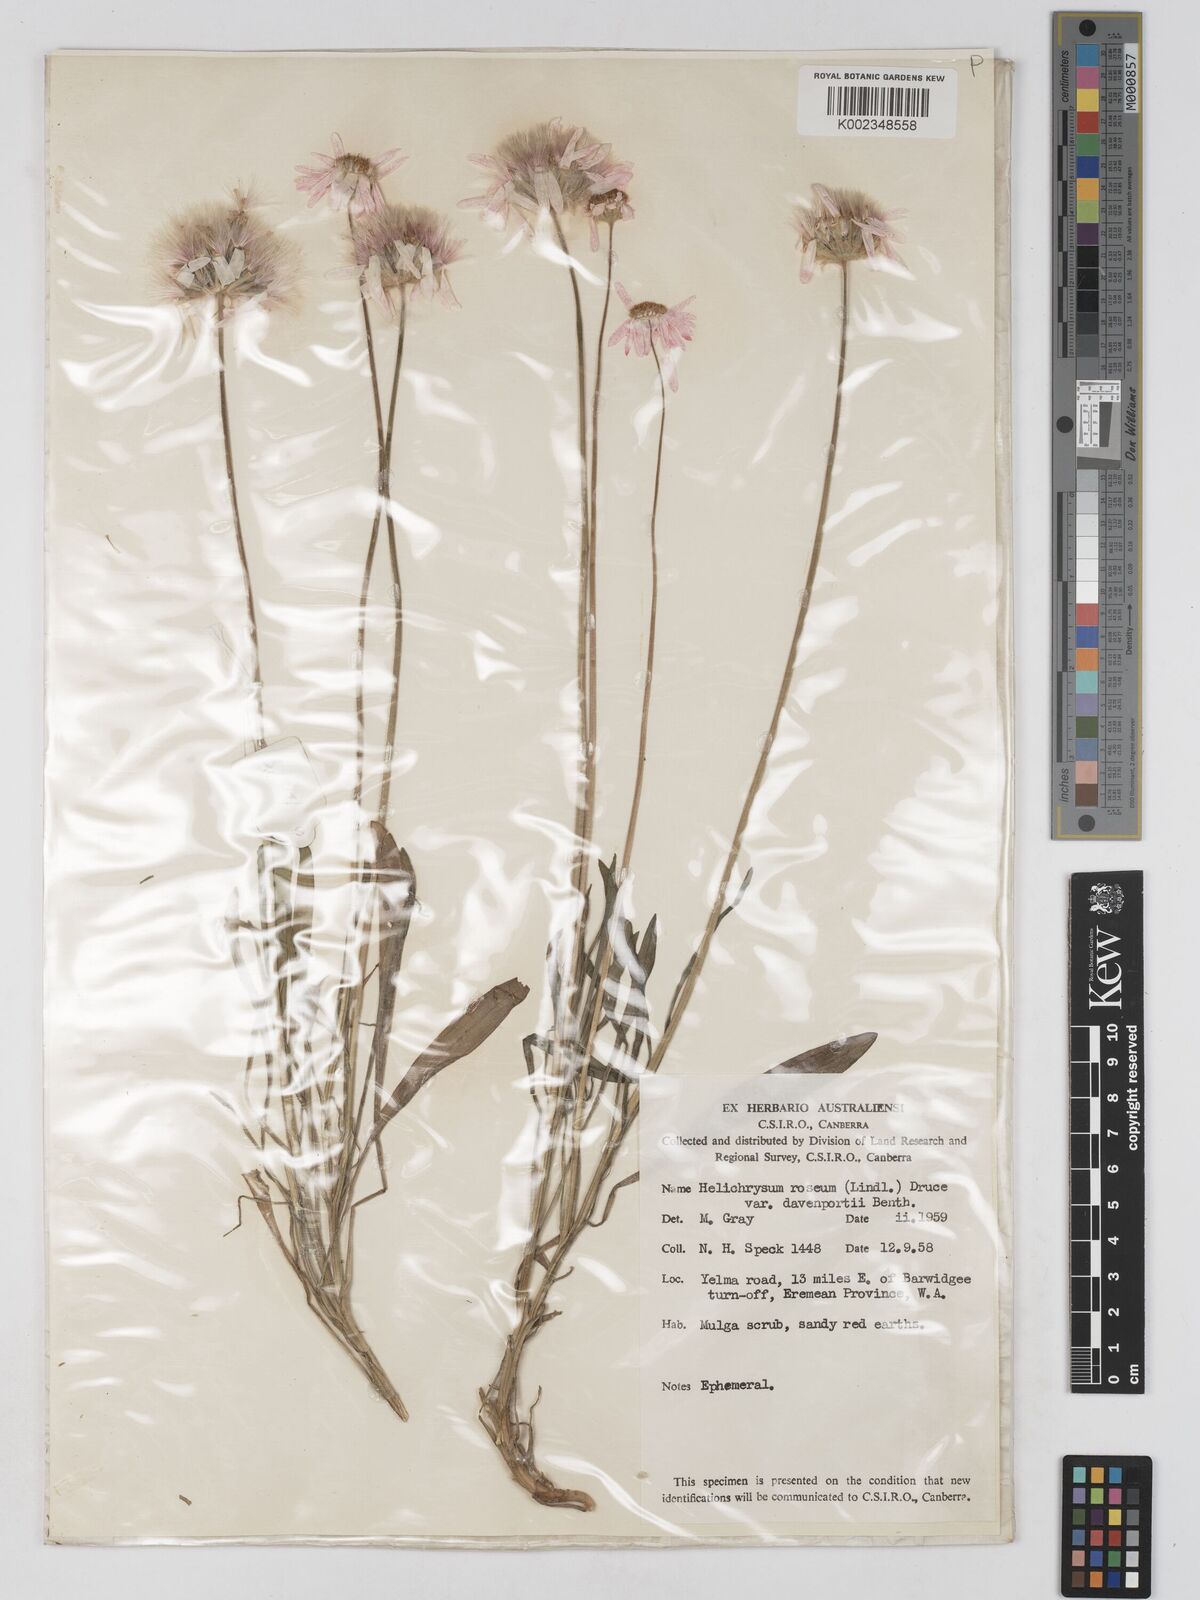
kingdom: Plantae
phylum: Tracheophyta
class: Magnoliopsida
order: Asterales
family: Asteraceae
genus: Lawrencella
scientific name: Lawrencella davenportii
